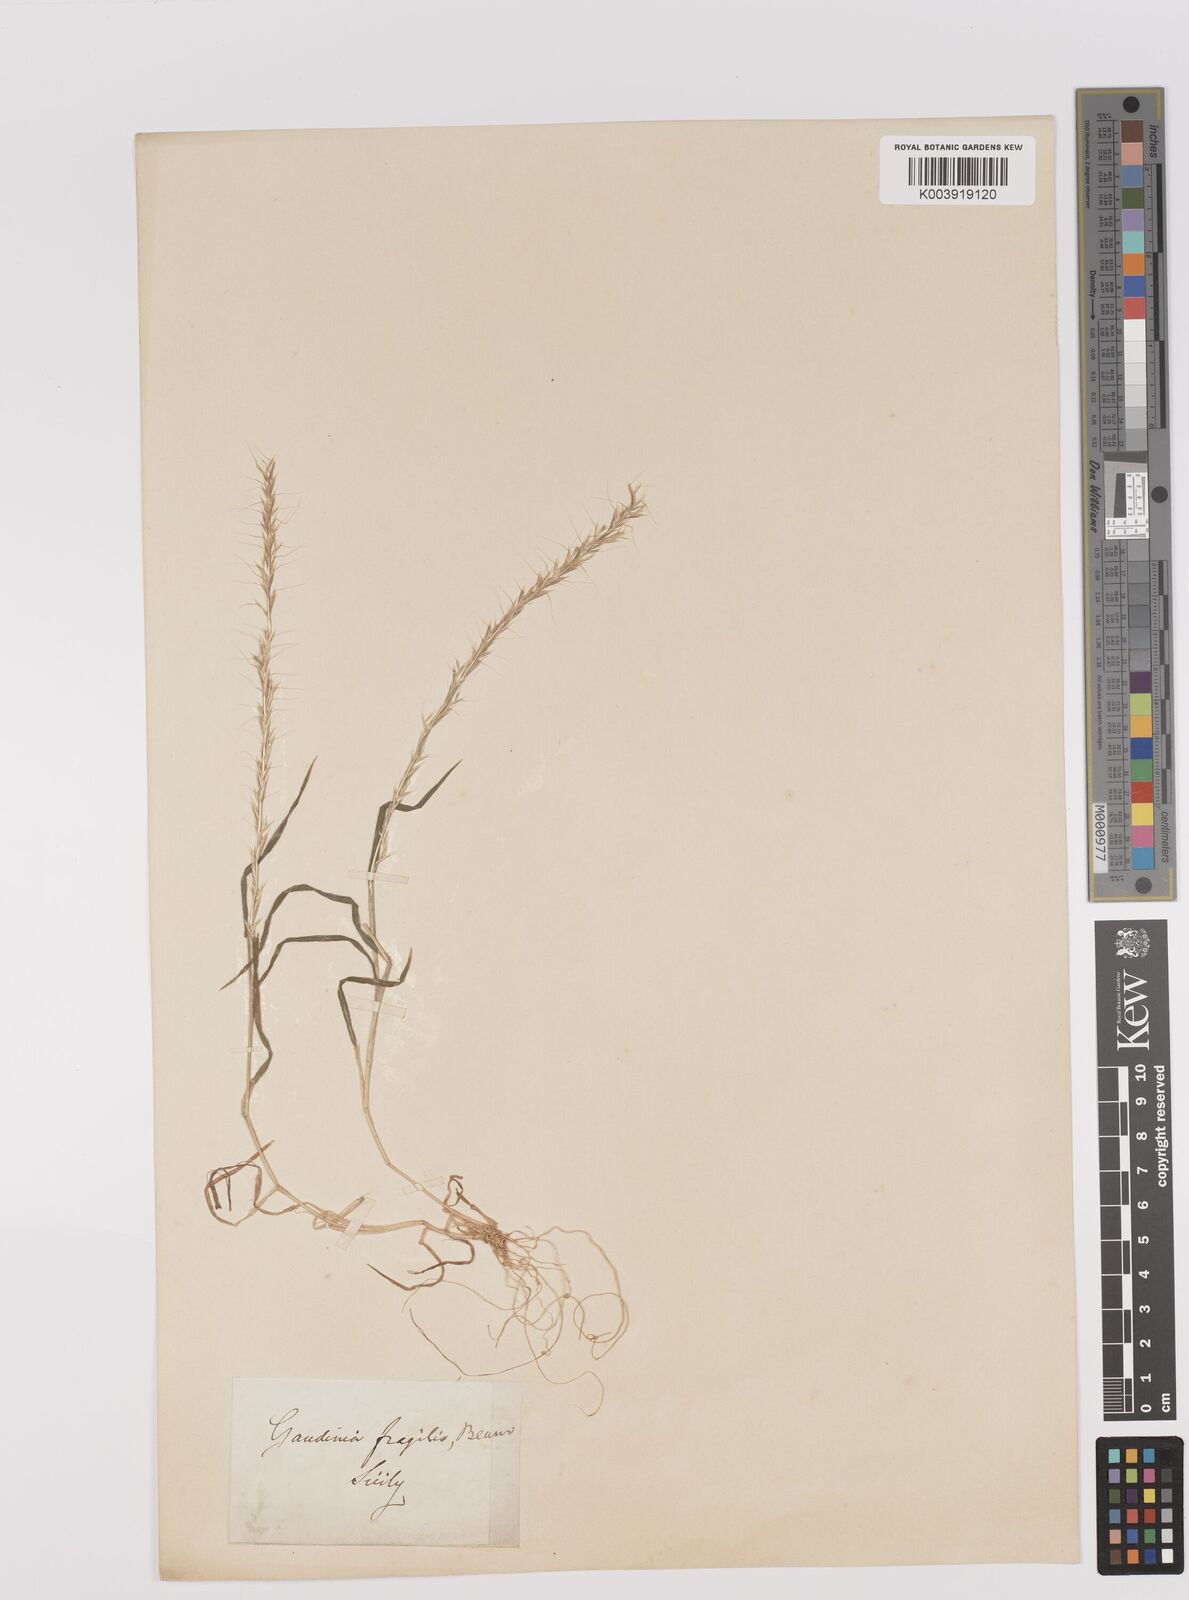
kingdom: Plantae
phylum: Tracheophyta
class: Liliopsida
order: Poales
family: Poaceae
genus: Gaudinia
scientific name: Gaudinia fragilis
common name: French oat-grass
